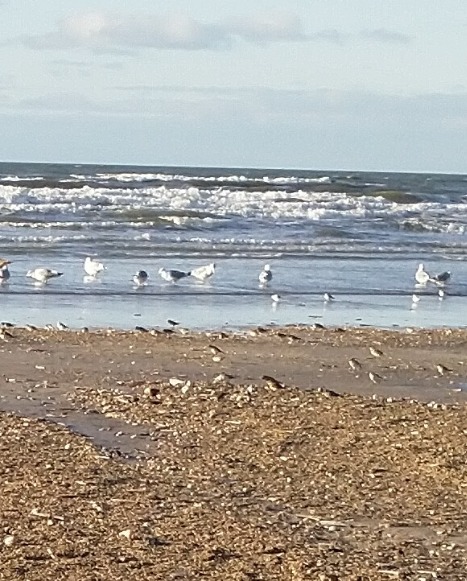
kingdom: Animalia
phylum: Chordata
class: Aves
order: Passeriformes
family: Calcariidae
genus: Plectrophenax
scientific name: Plectrophenax nivalis
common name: Snespurv
